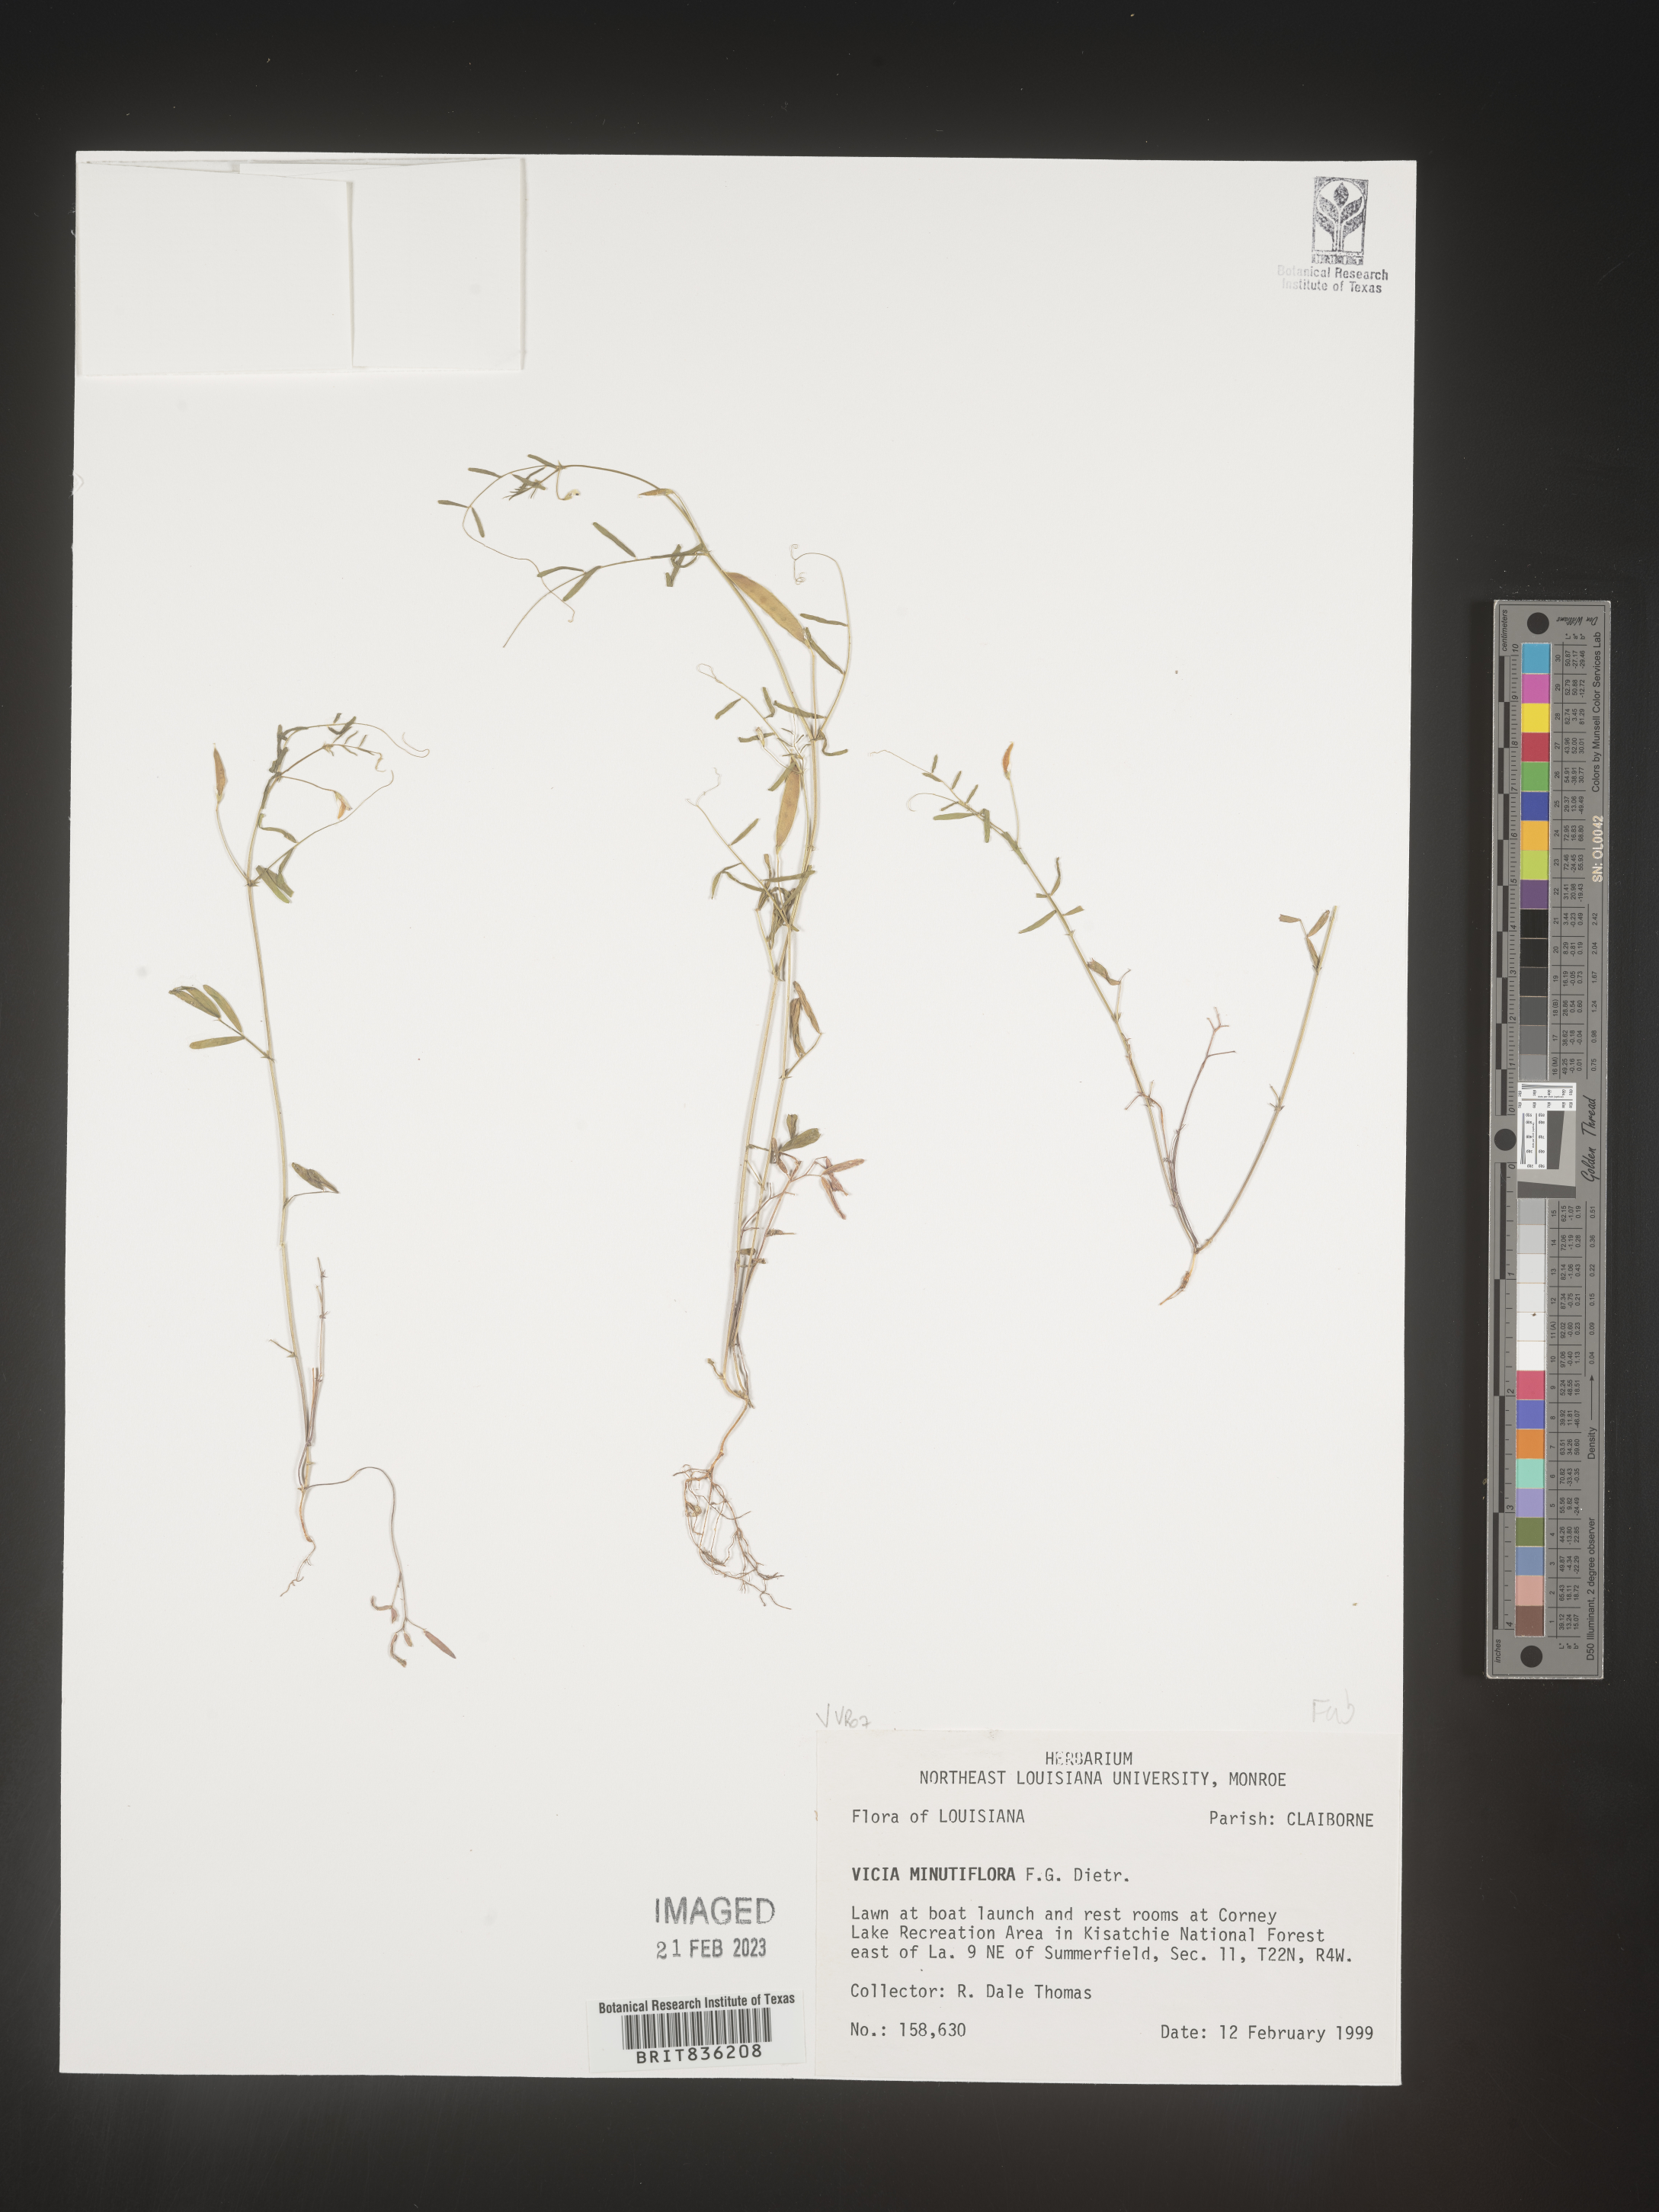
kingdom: Plantae
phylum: Tracheophyta
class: Magnoliopsida
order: Fabales
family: Fabaceae
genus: Vicia
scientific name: Vicia minutiflora
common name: Pygmy-flower vetch
